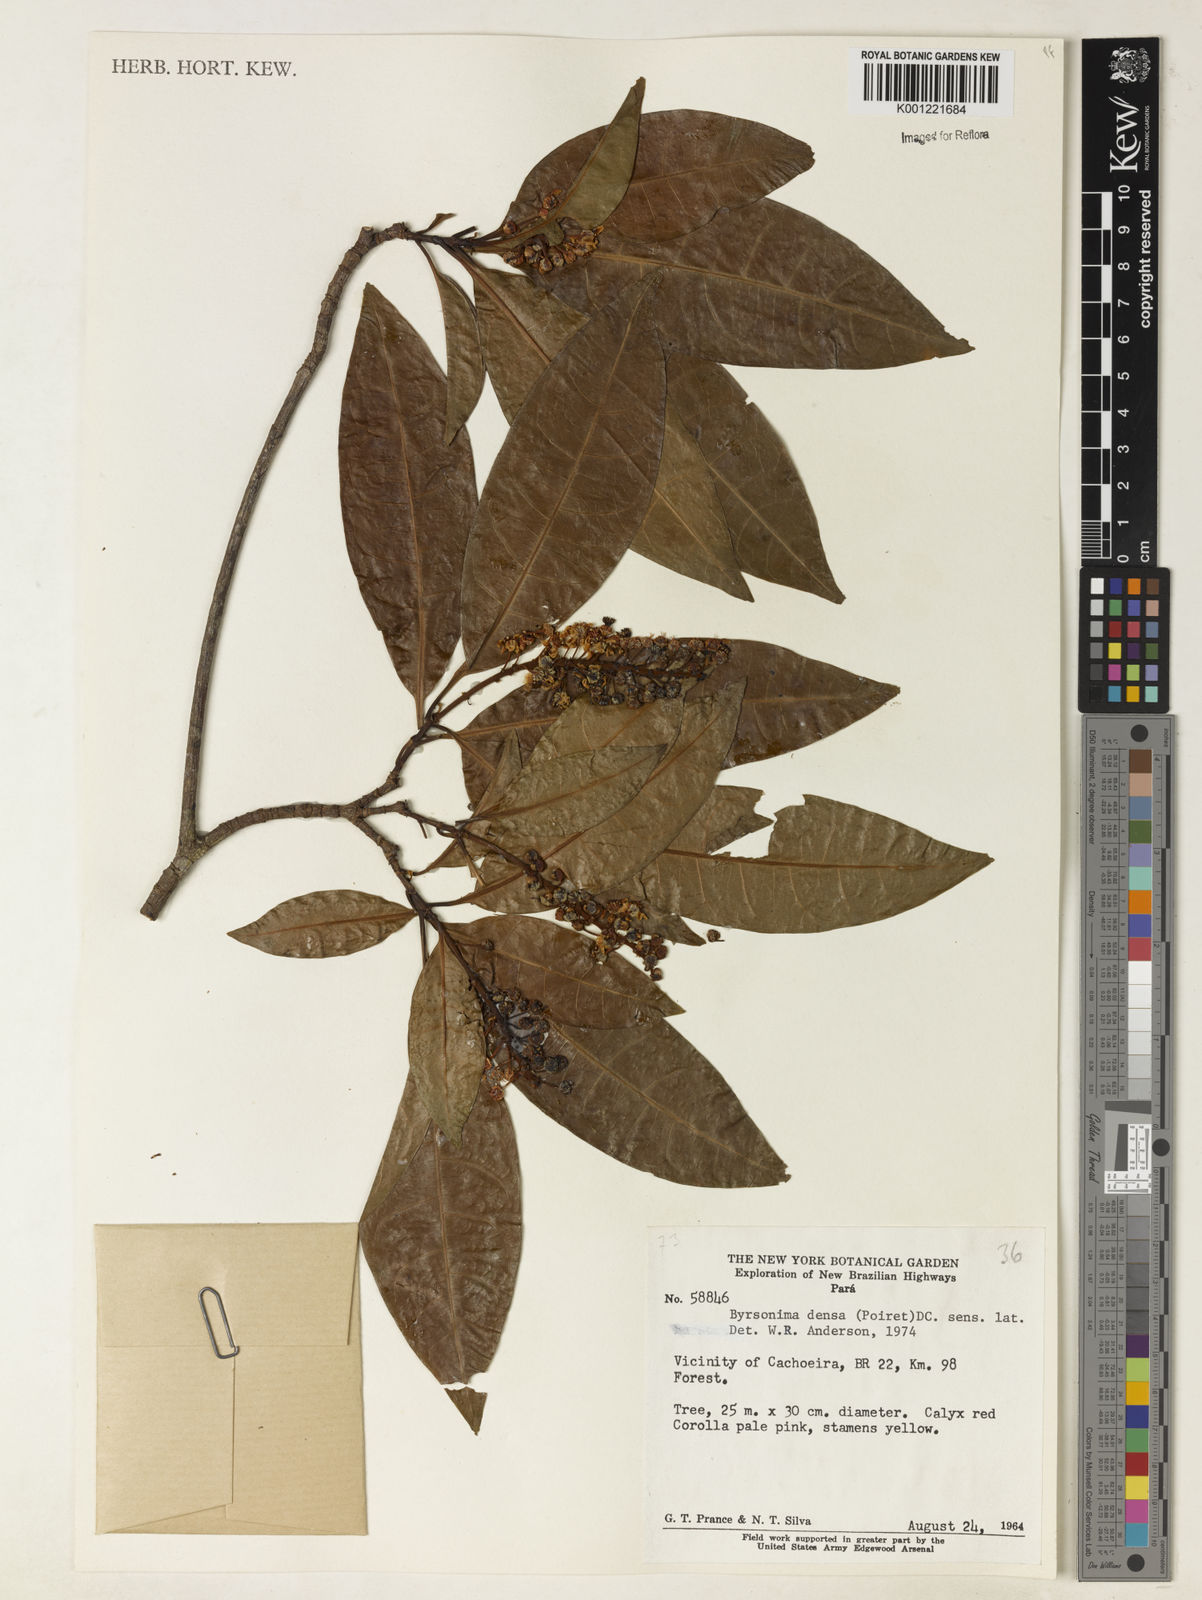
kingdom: Plantae
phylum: Tracheophyta
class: Magnoliopsida
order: Malpighiales
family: Malpighiaceae
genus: Byrsonima
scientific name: Byrsonima densa
